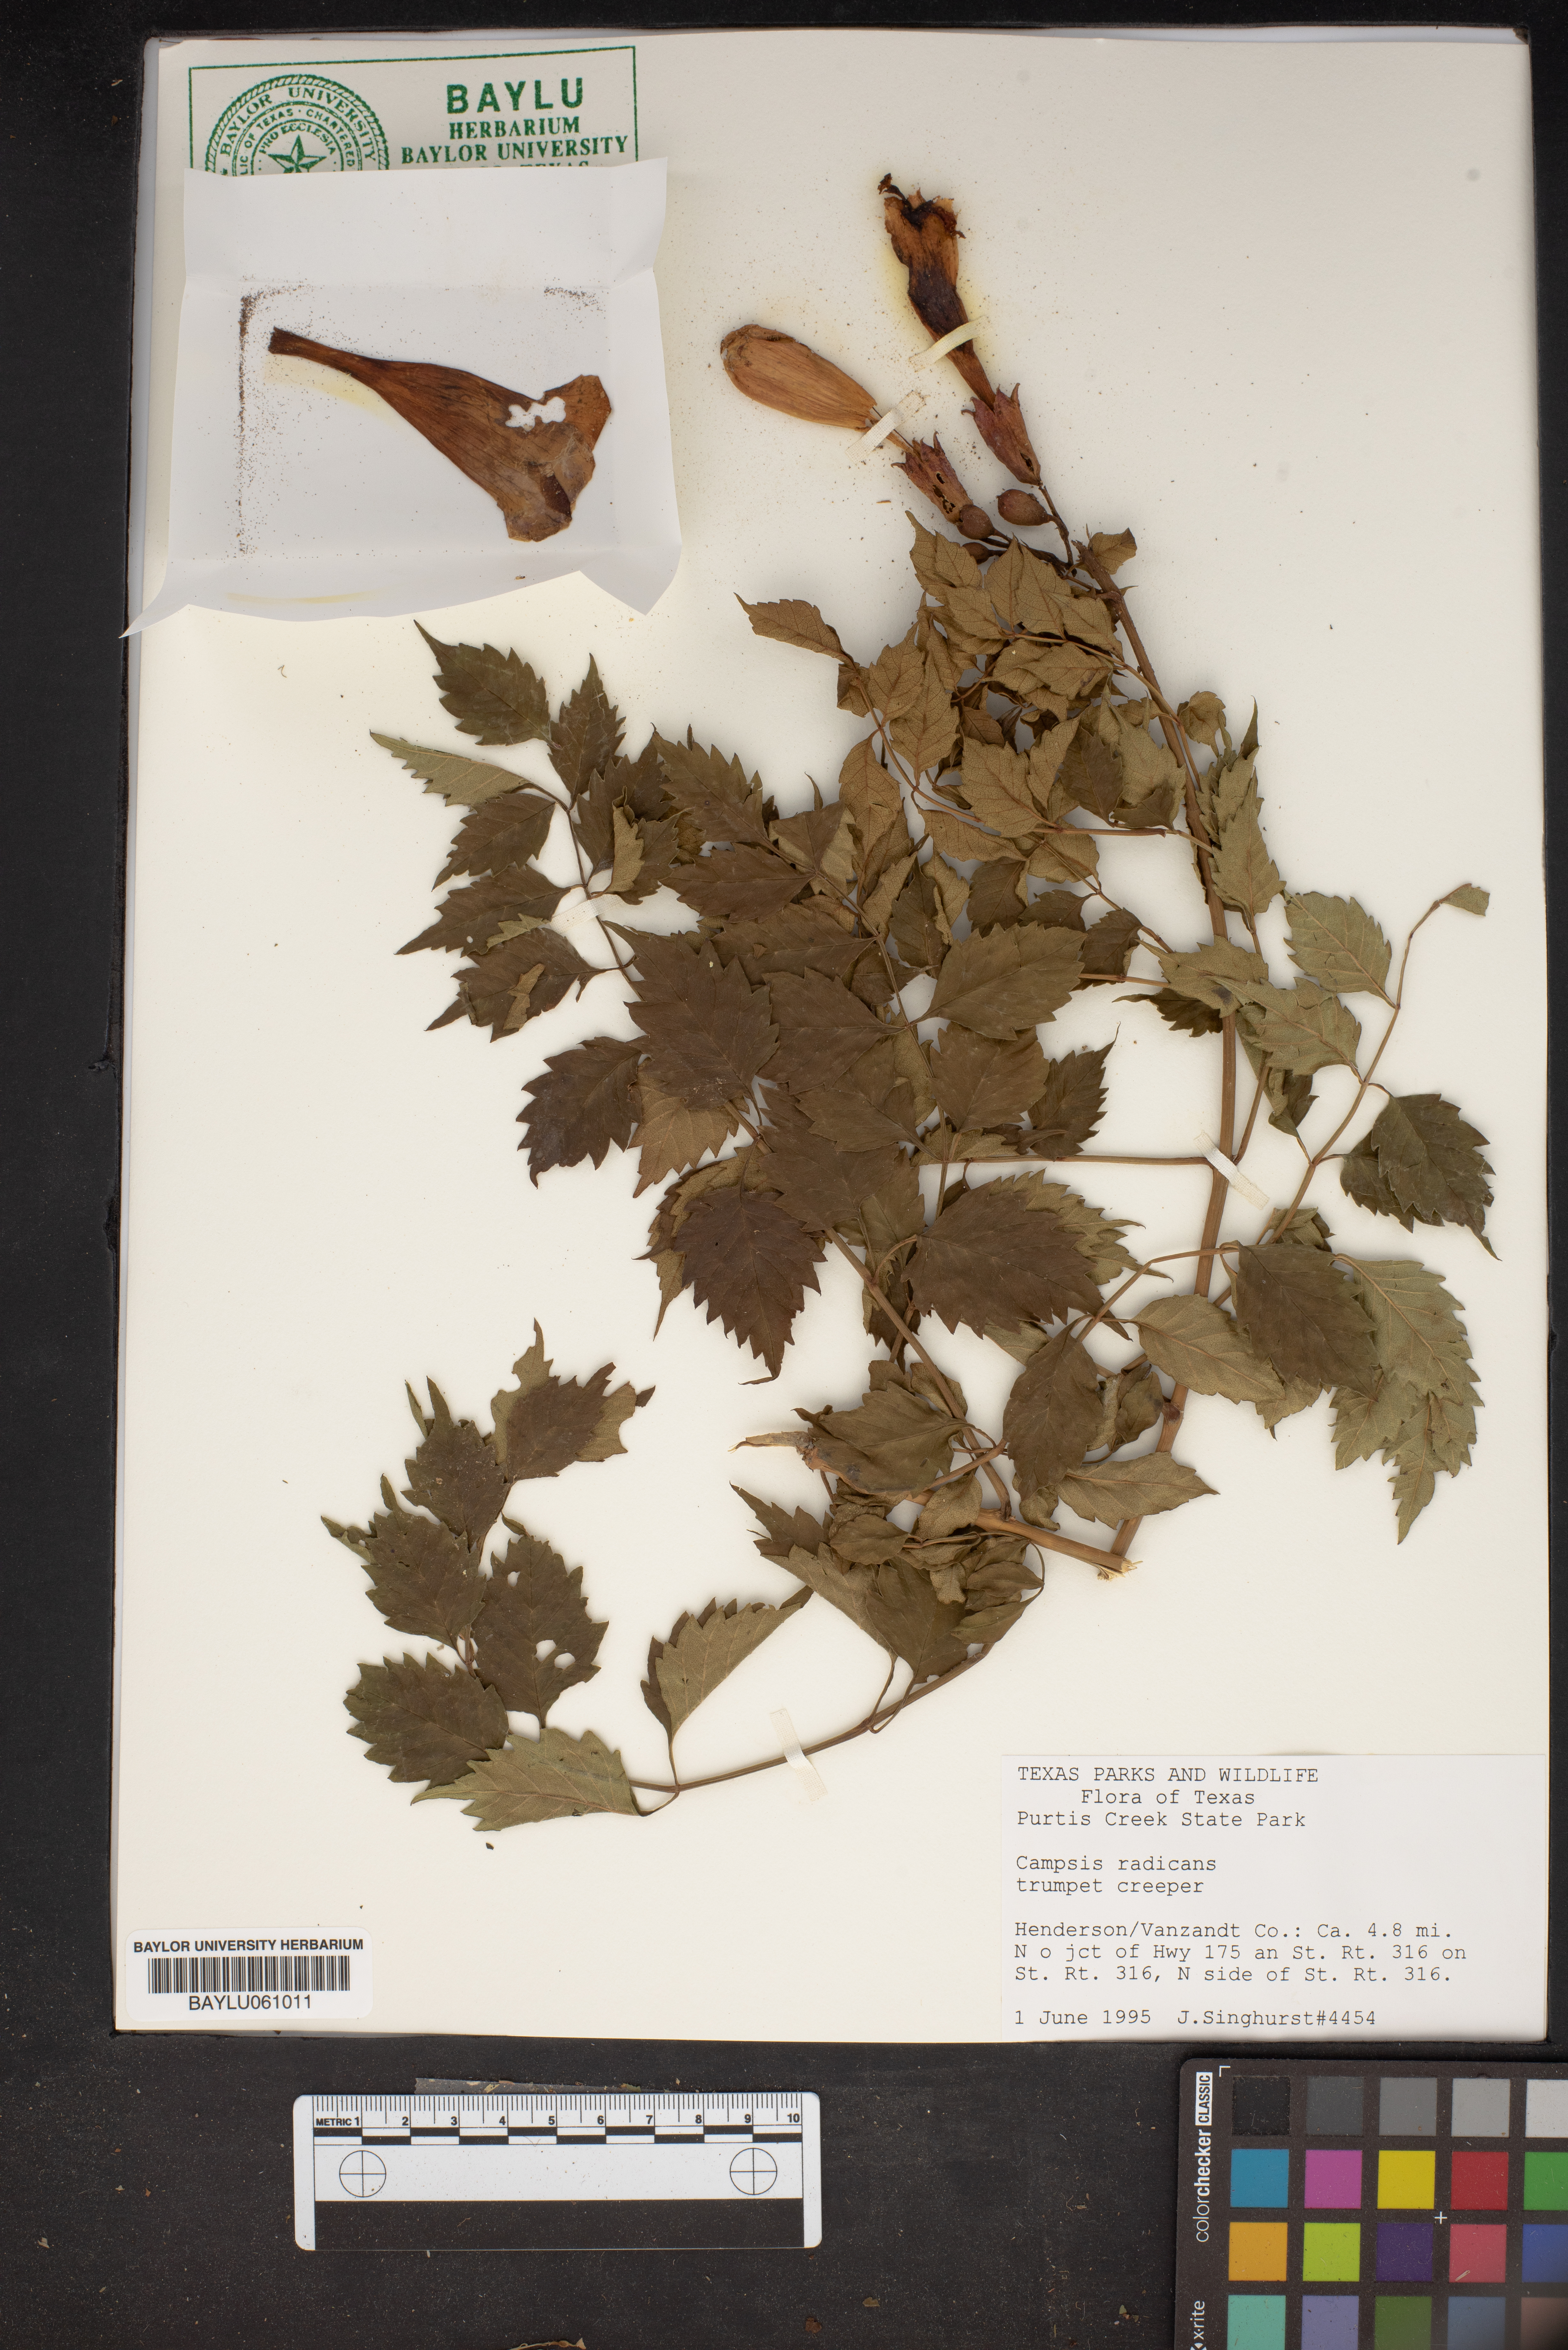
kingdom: Plantae
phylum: Tracheophyta
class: Magnoliopsida
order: Lamiales
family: Bignoniaceae
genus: Campsis
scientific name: Campsis radicans
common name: Trumpet-creeper
